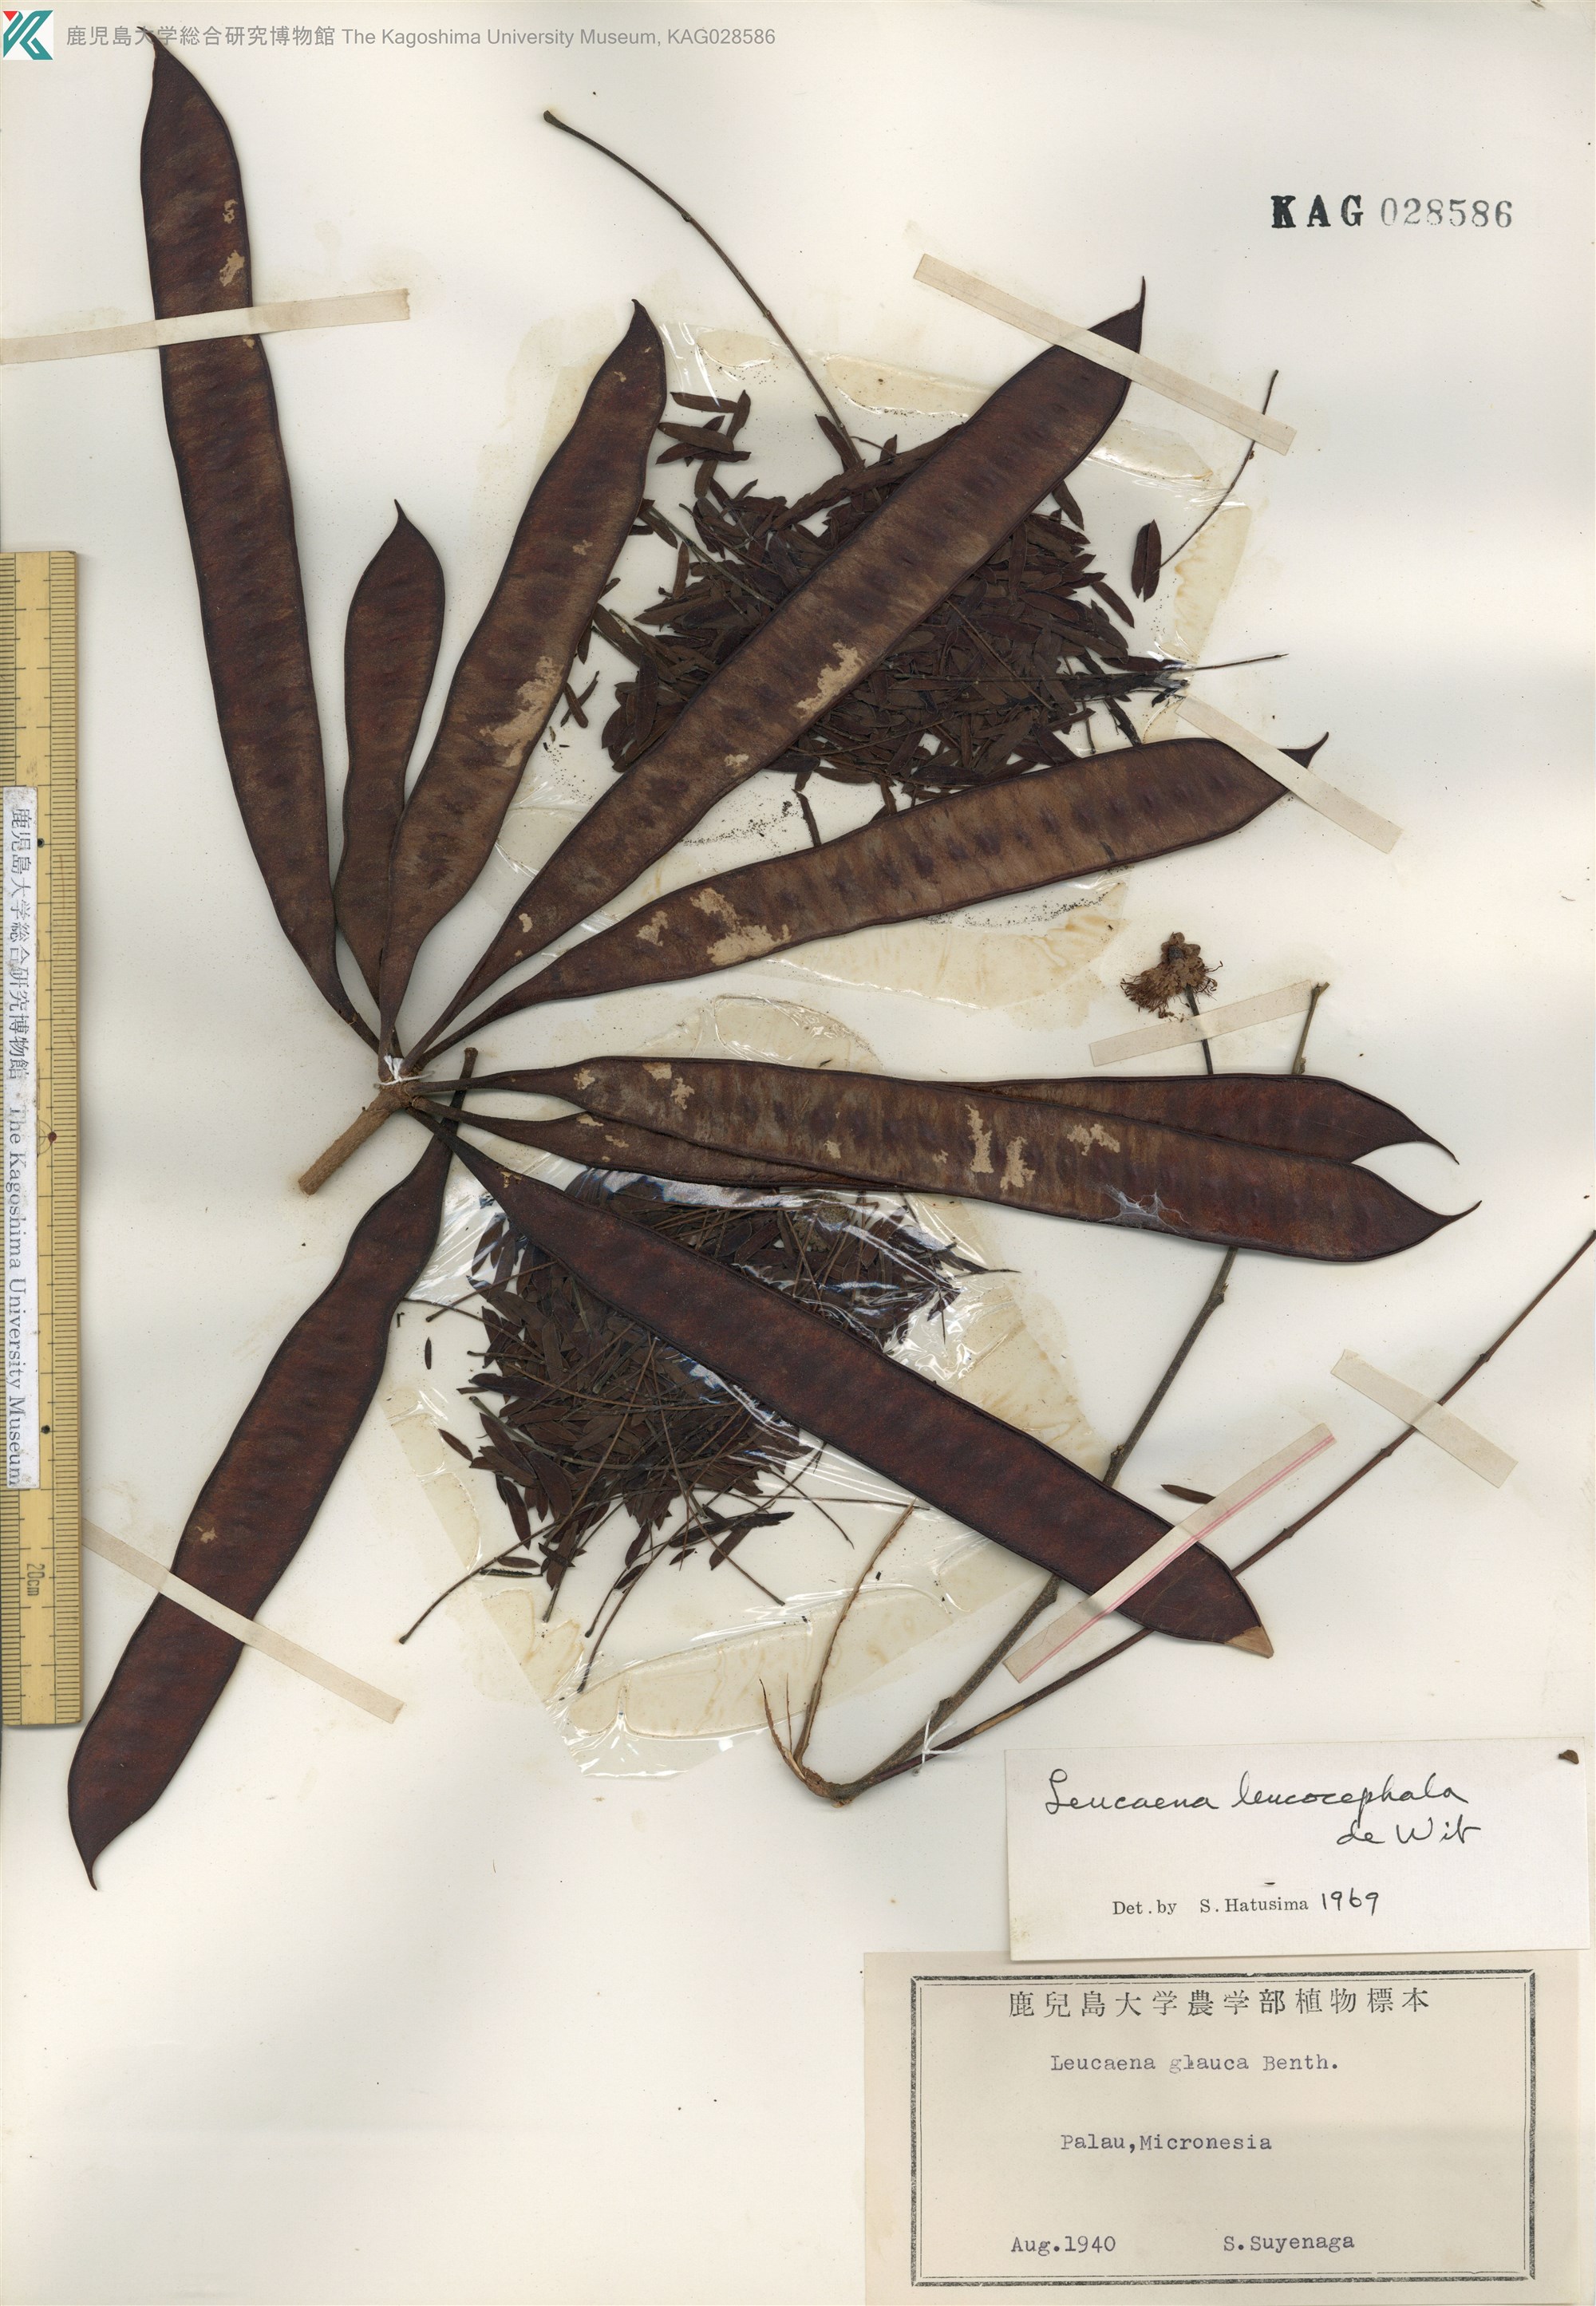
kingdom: Plantae
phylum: Tracheophyta
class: Magnoliopsida
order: Fabales
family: Fabaceae
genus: Leucaena
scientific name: Leucaena leucocephala
